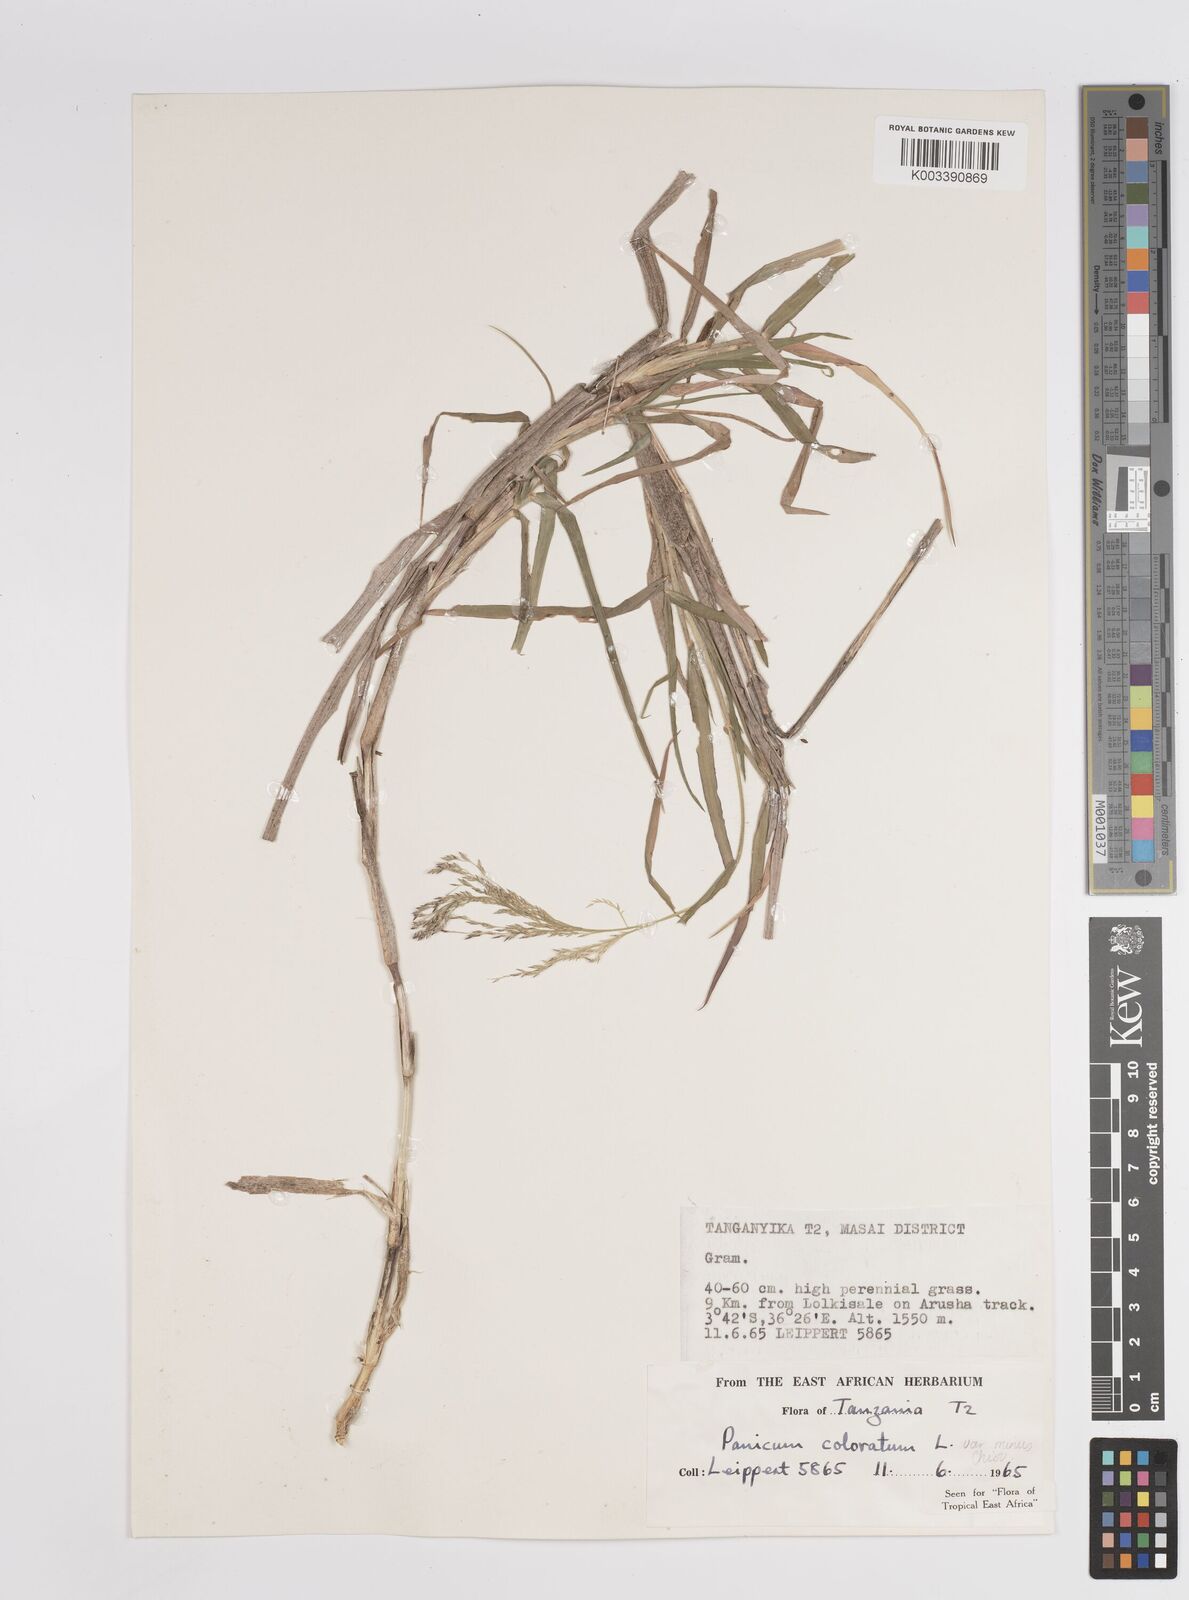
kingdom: Plantae
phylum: Tracheophyta
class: Liliopsida
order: Poales
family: Poaceae
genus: Panicum
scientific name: Panicum coloratum
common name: Kleingrass
